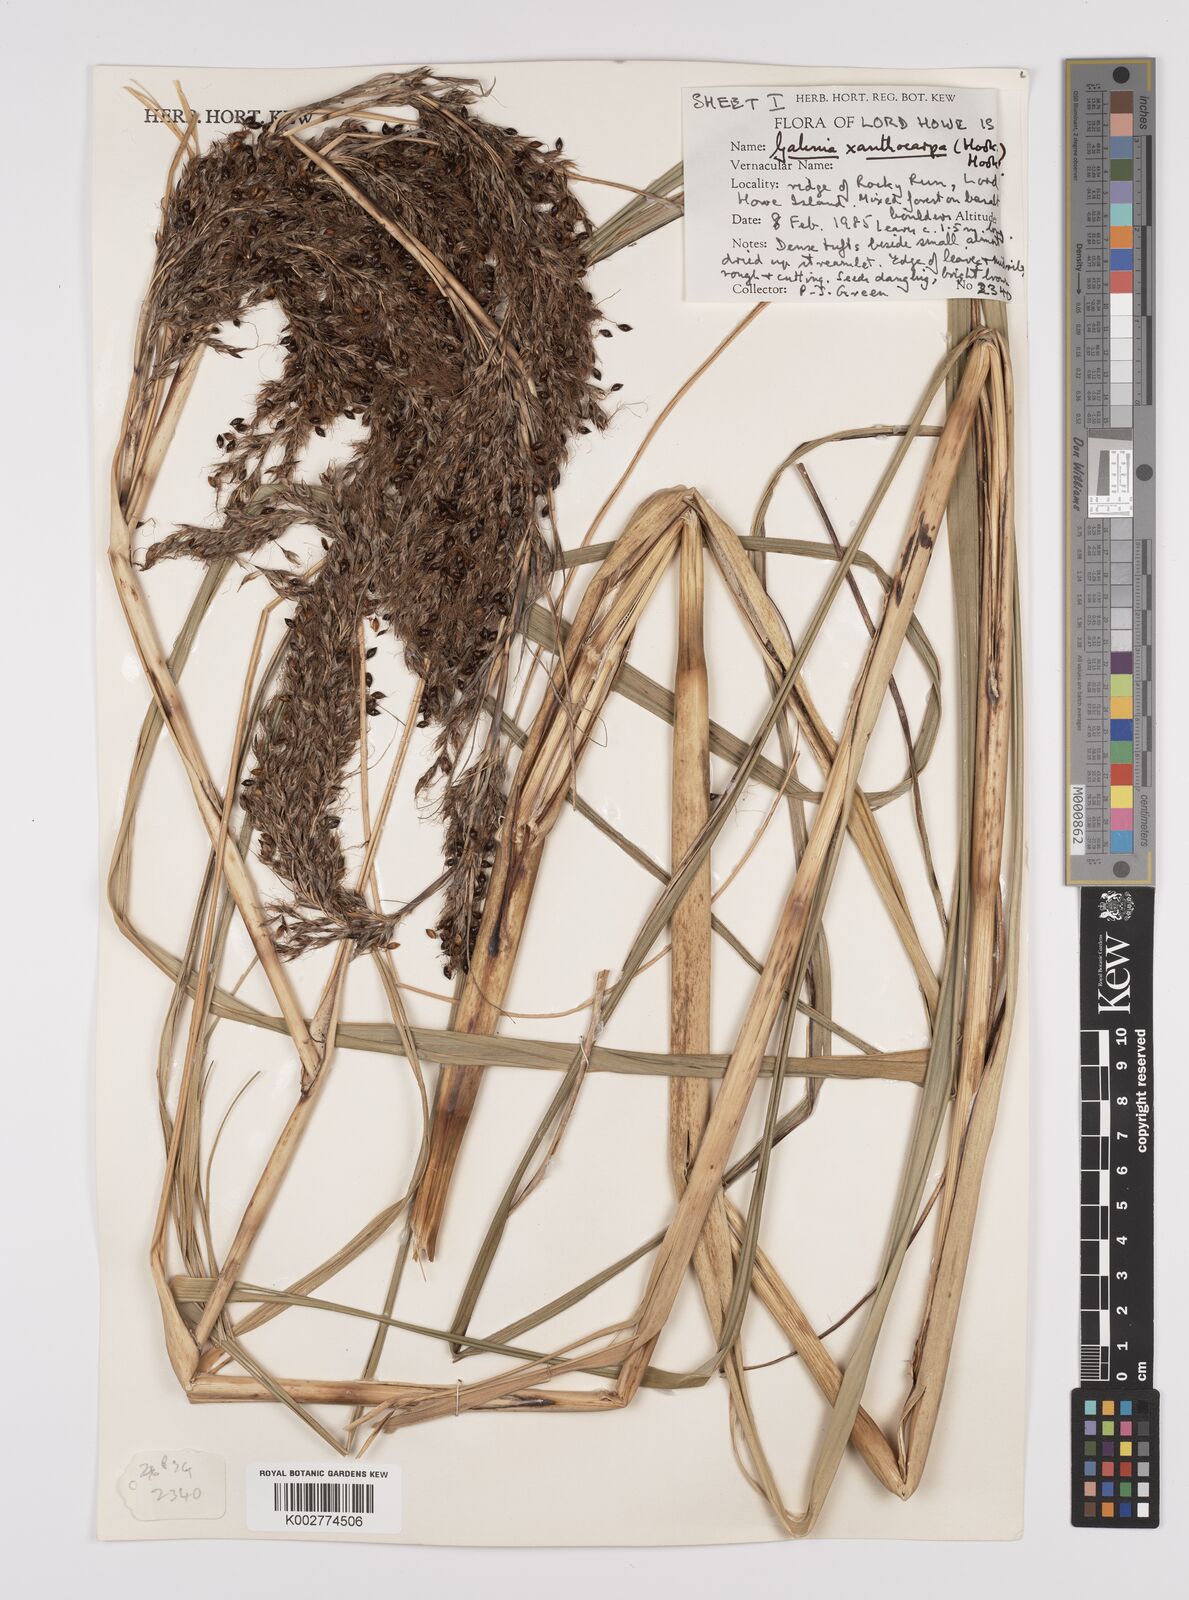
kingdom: Plantae
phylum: Tracheophyta
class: Liliopsida
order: Poales
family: Cyperaceae
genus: Gahnia
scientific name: Gahnia xanthocarpa
